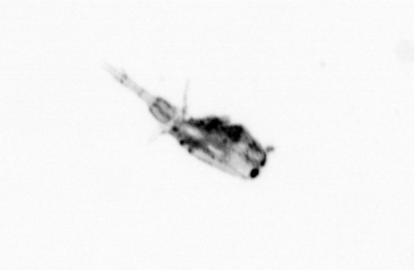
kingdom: Animalia
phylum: Arthropoda
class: Copepoda
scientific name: Copepoda
